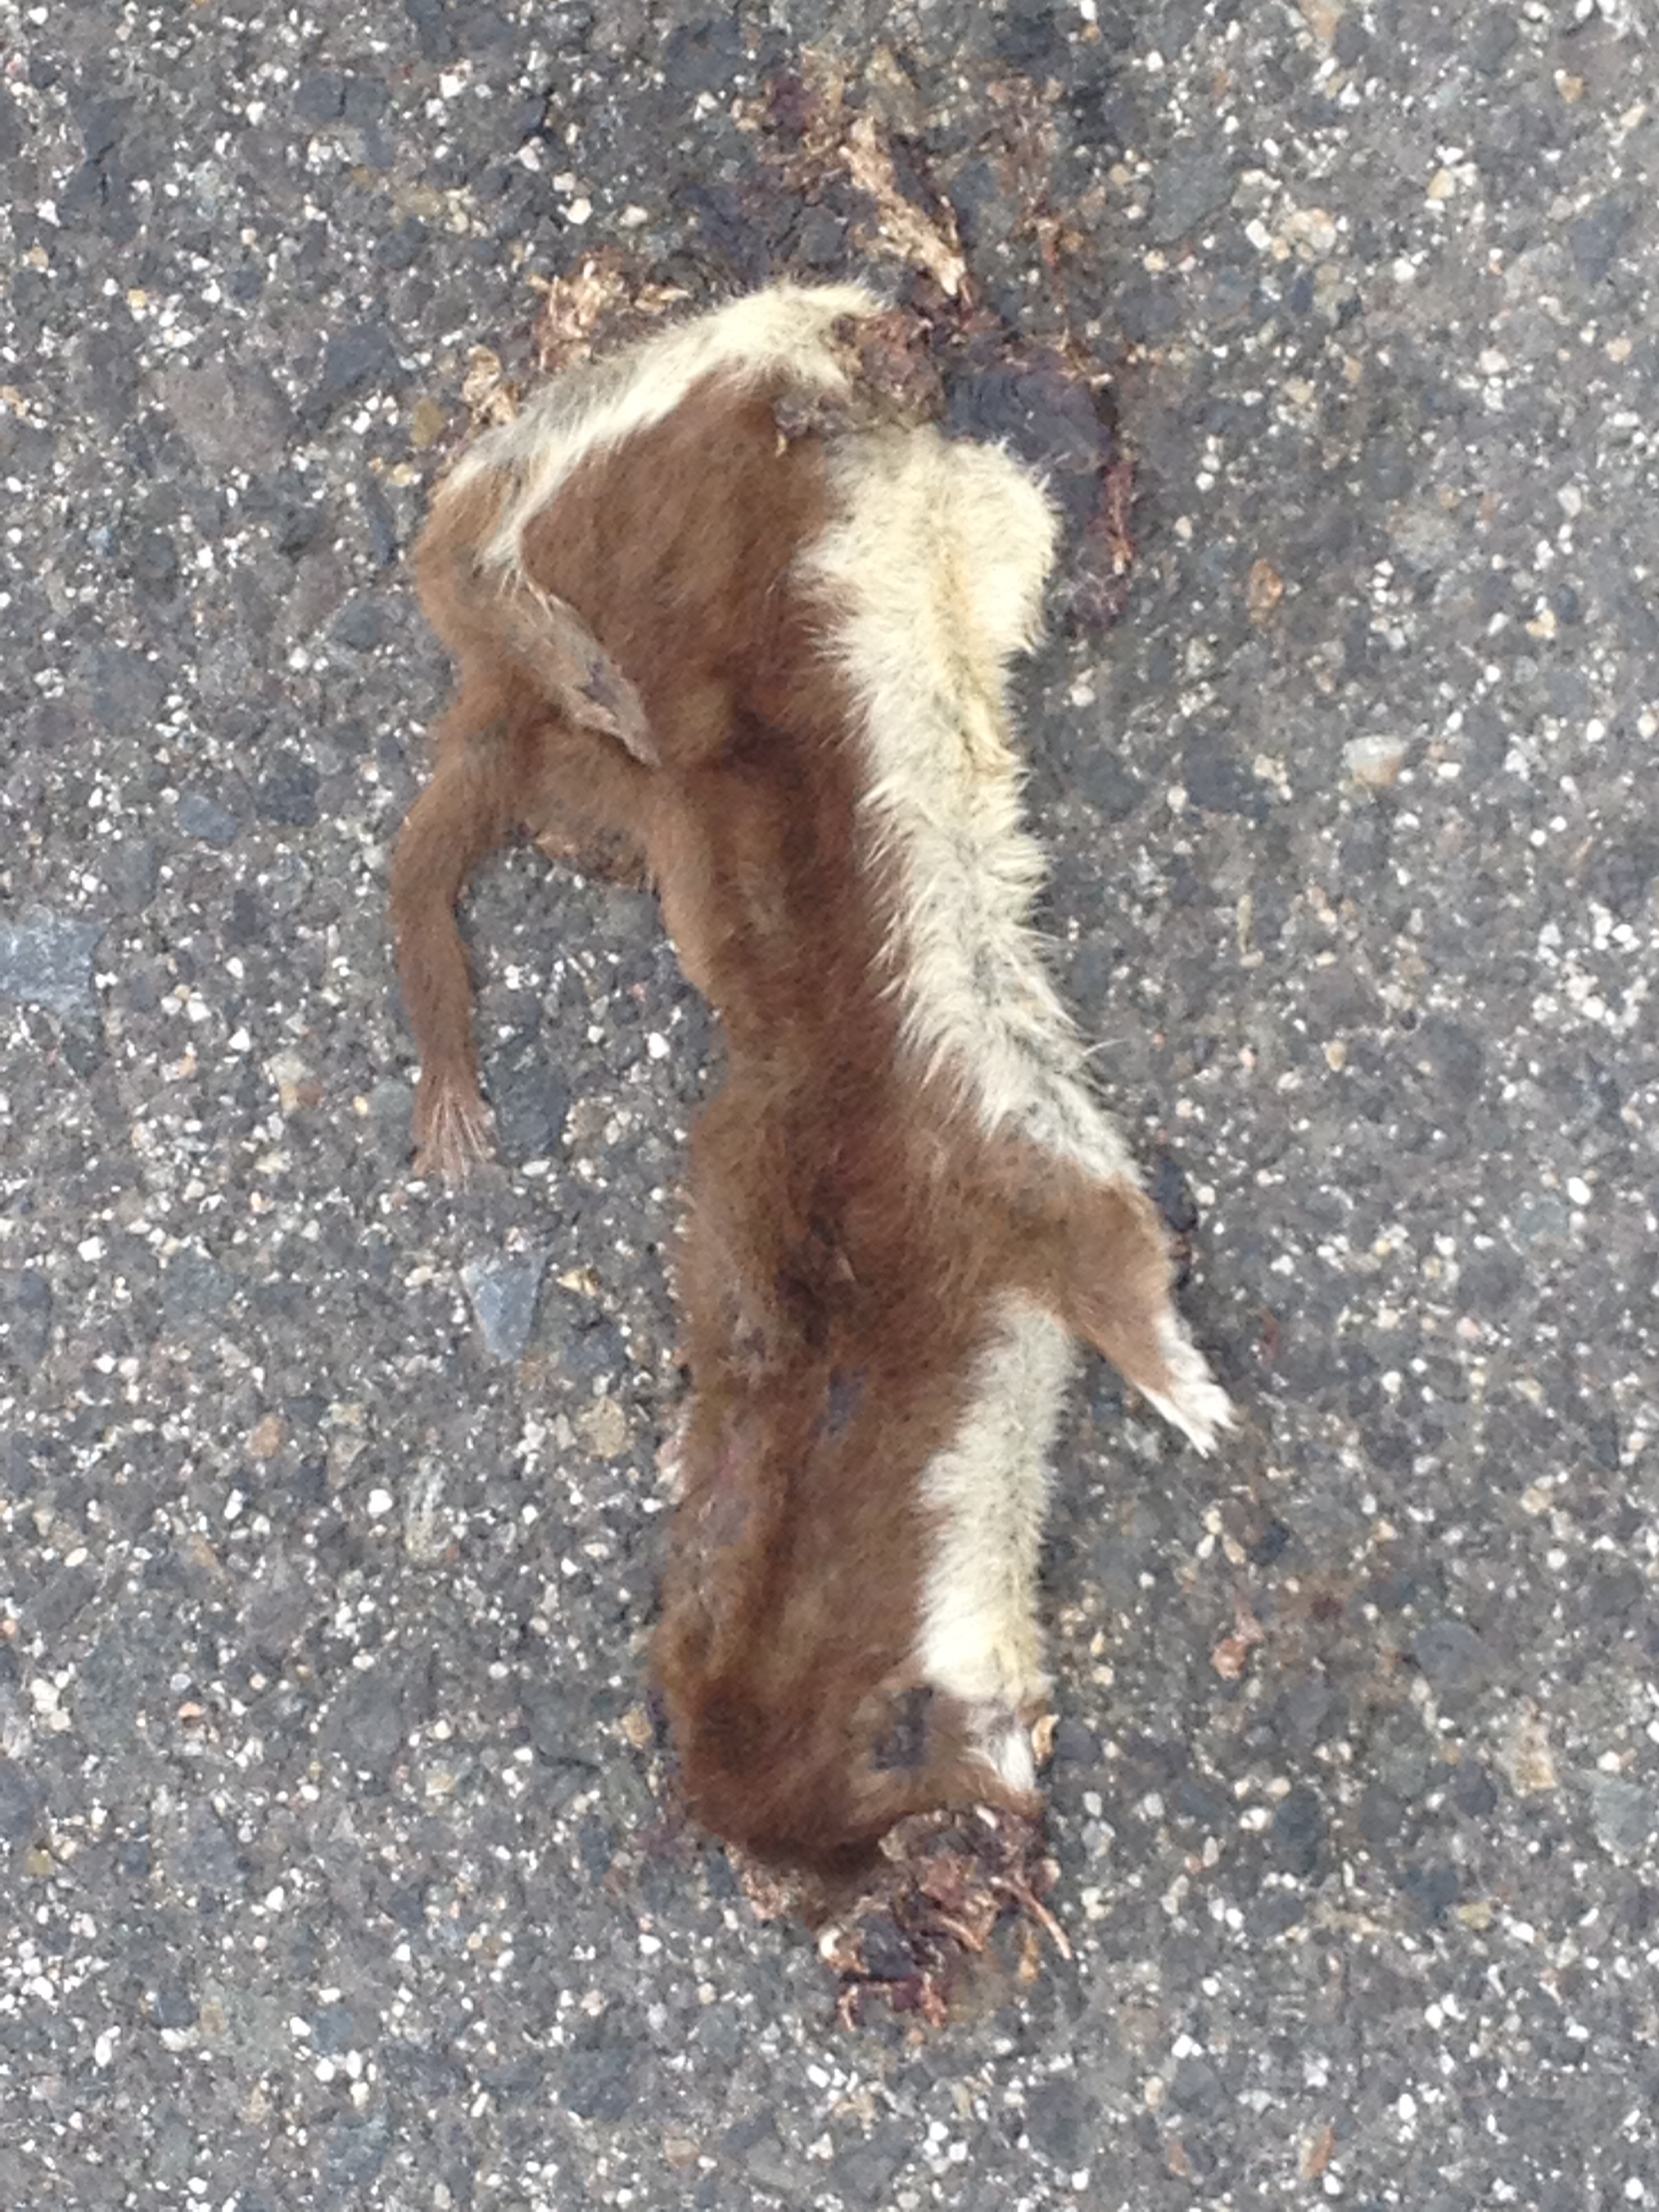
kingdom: Animalia
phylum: Chordata
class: Mammalia
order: Carnivora
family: Mustelidae
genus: Mustela
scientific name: Mustela nivalis
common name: Least weasel
